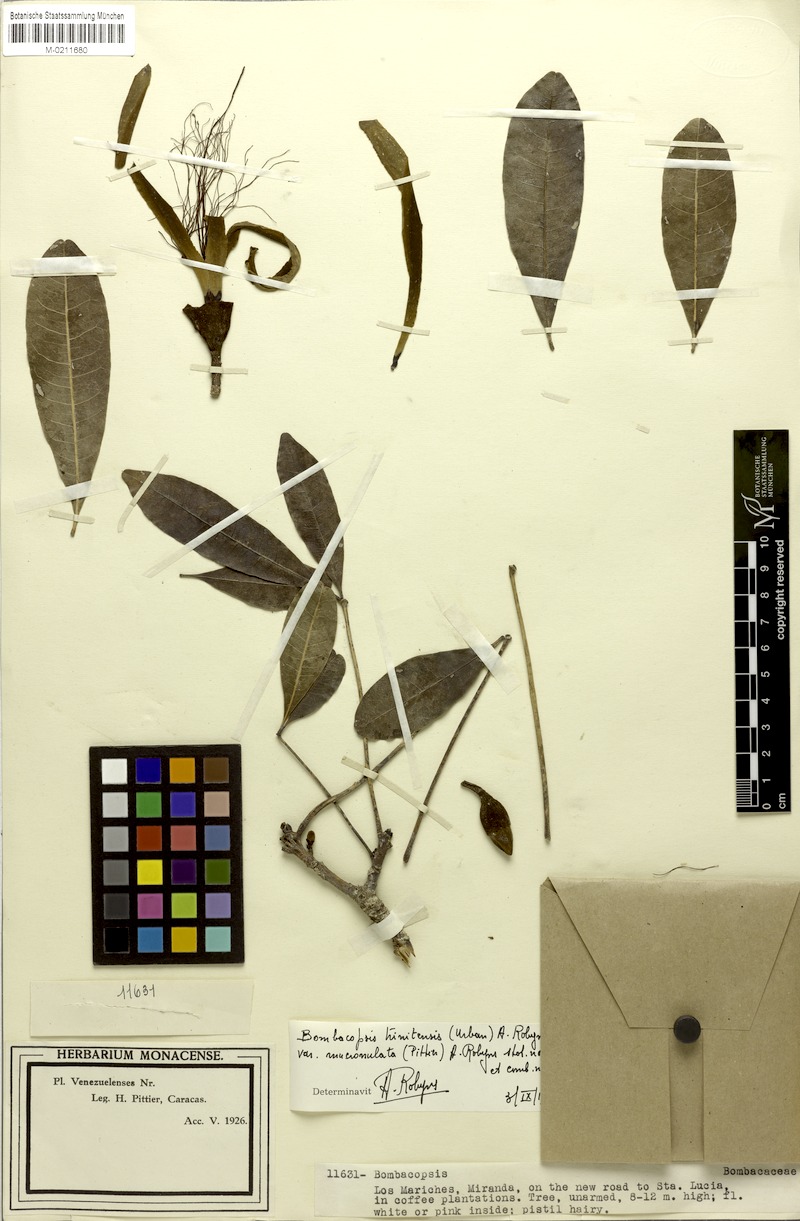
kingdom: Plantae
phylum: Tracheophyta
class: Magnoliopsida
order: Malvales
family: Malvaceae
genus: Pachira
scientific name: Pachira trinitensis
